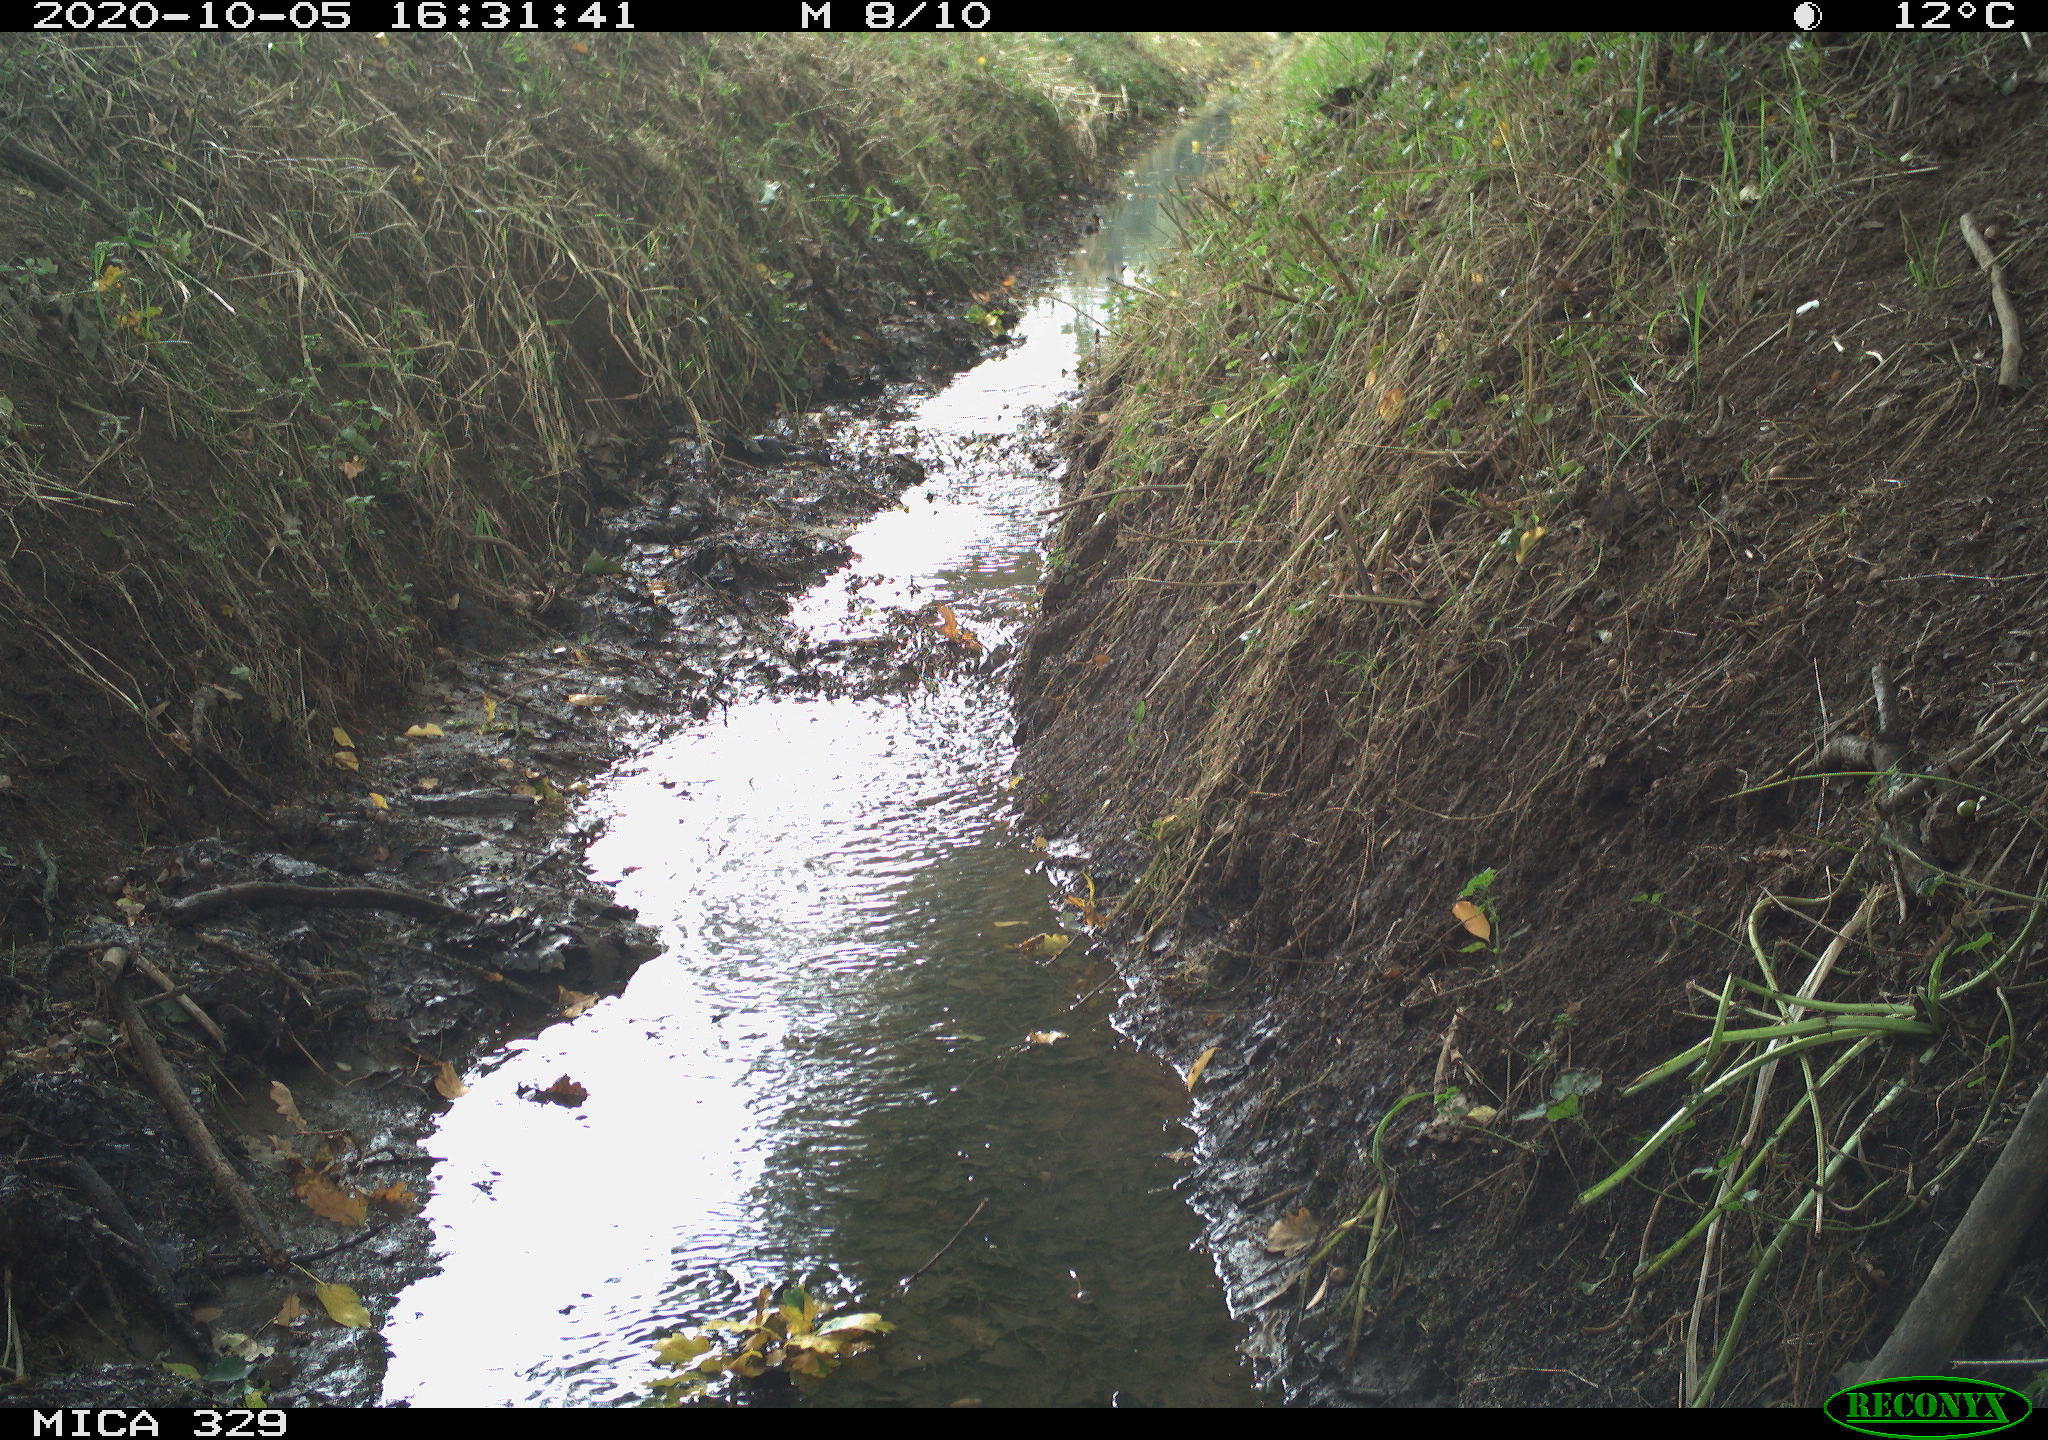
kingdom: Animalia
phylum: Chordata
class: Mammalia
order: Rodentia
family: Sciuridae
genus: Sciurus
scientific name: Sciurus vulgaris
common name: Eurasian red squirrel
